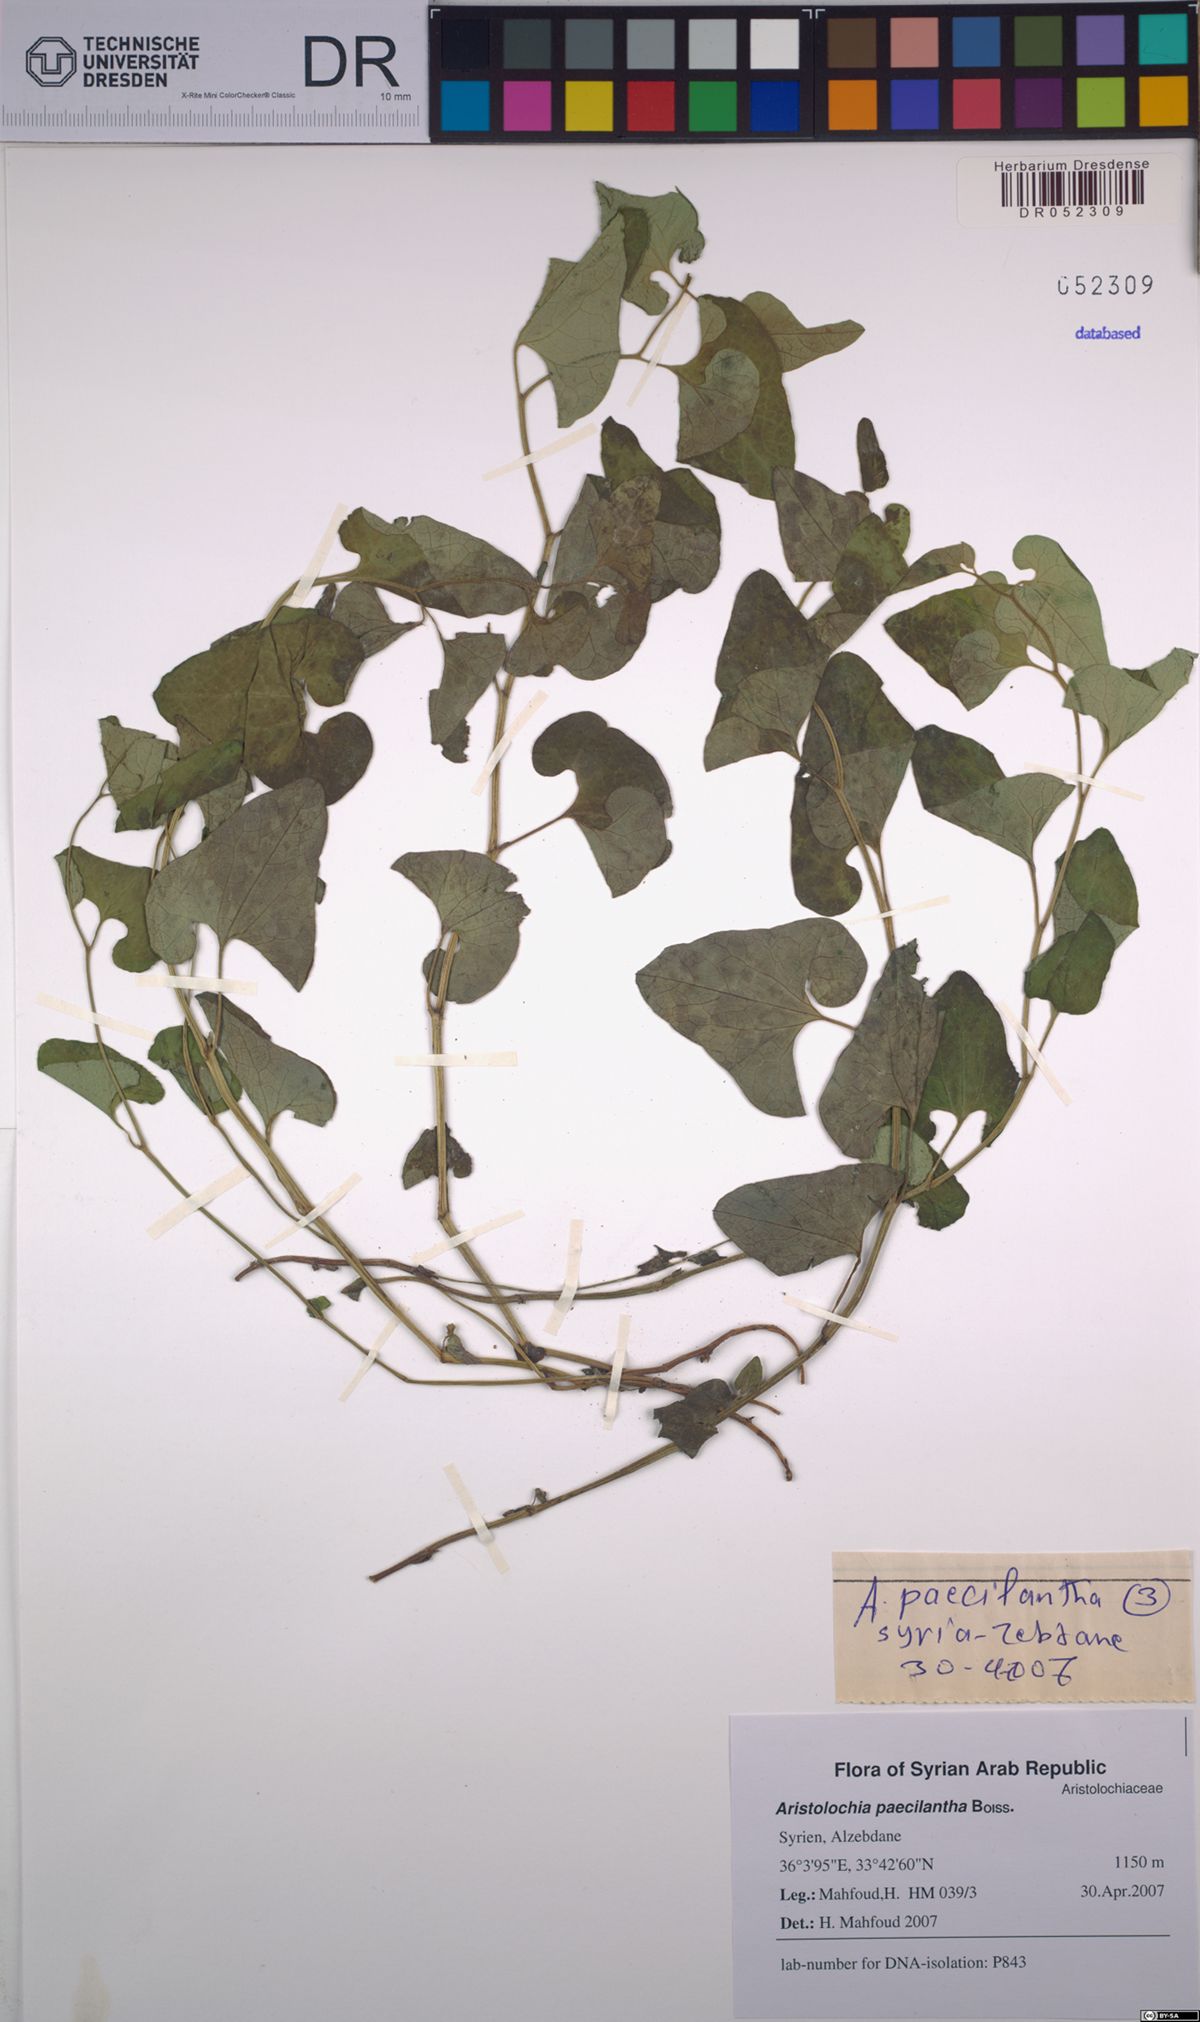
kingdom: Plantae
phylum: Tracheophyta
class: Magnoliopsida
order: Piperales
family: Aristolochiaceae
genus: Aristolochia
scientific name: Aristolochia paecilantha
